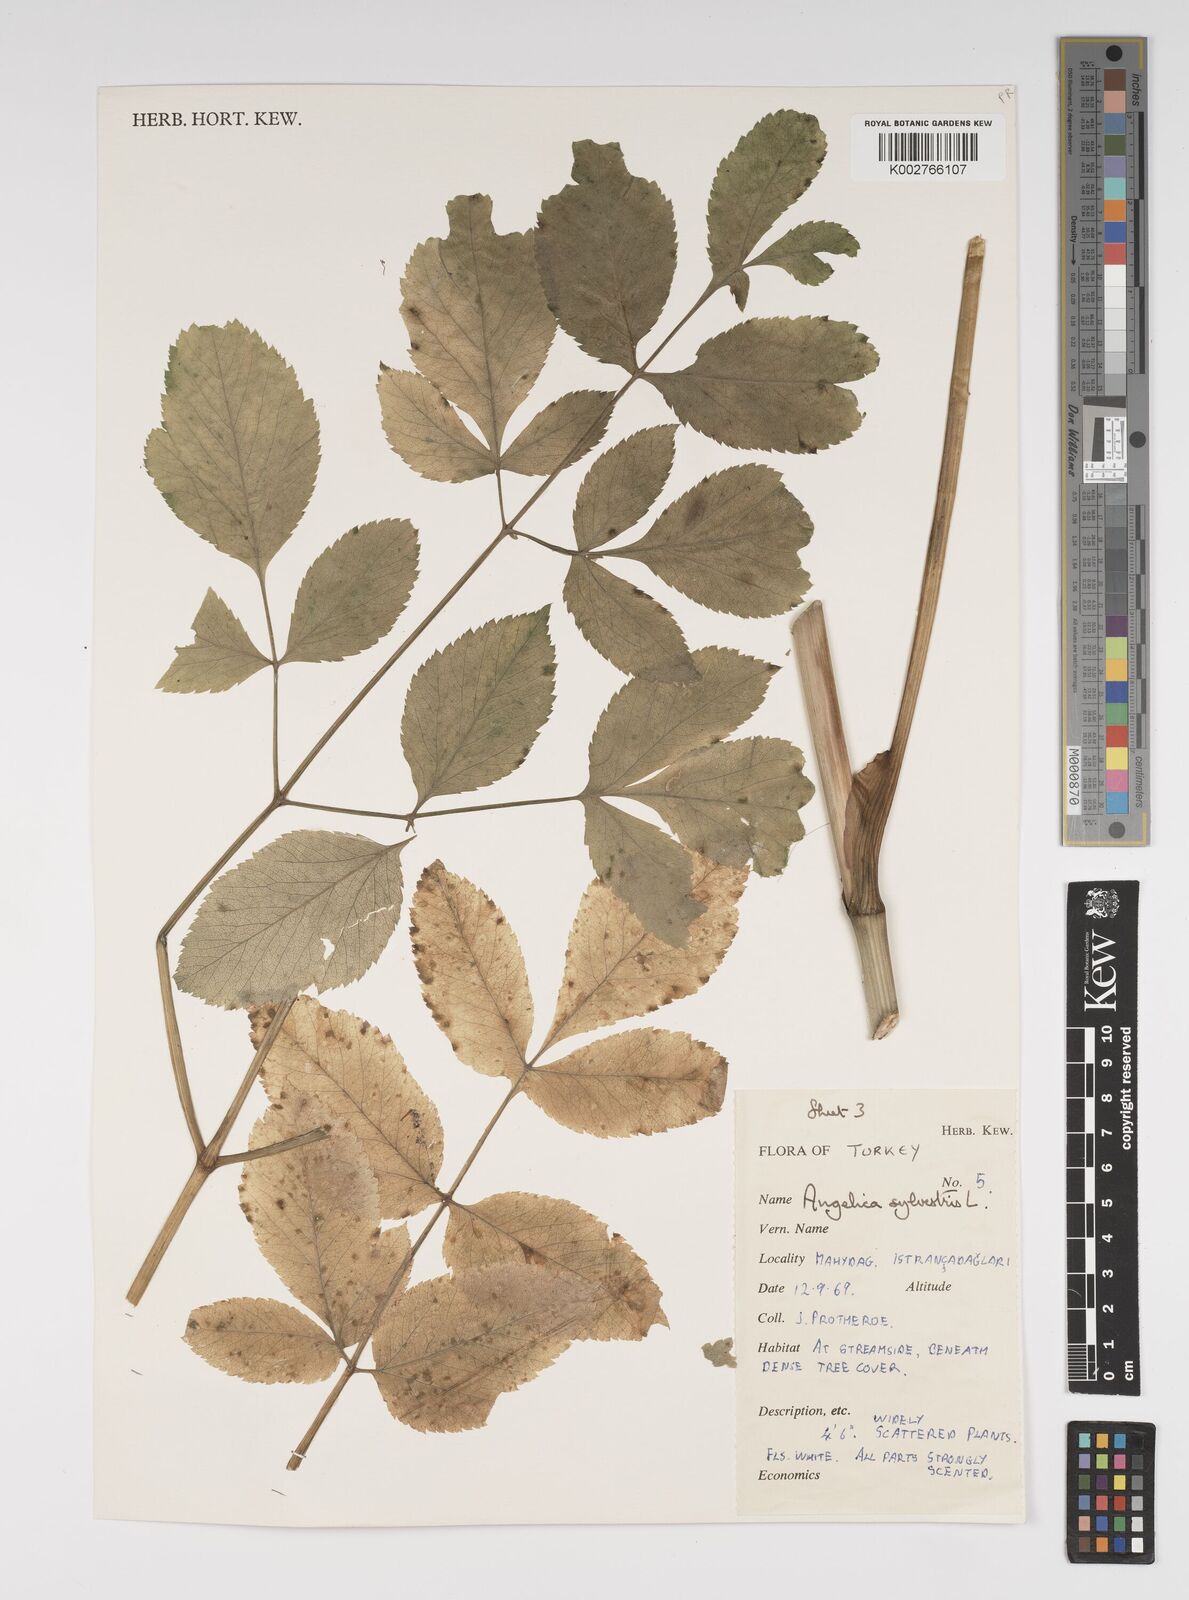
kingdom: Plantae
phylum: Tracheophyta
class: Magnoliopsida
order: Apiales
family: Apiaceae
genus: Angelica
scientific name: Angelica sylvestris
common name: Wild angelica
